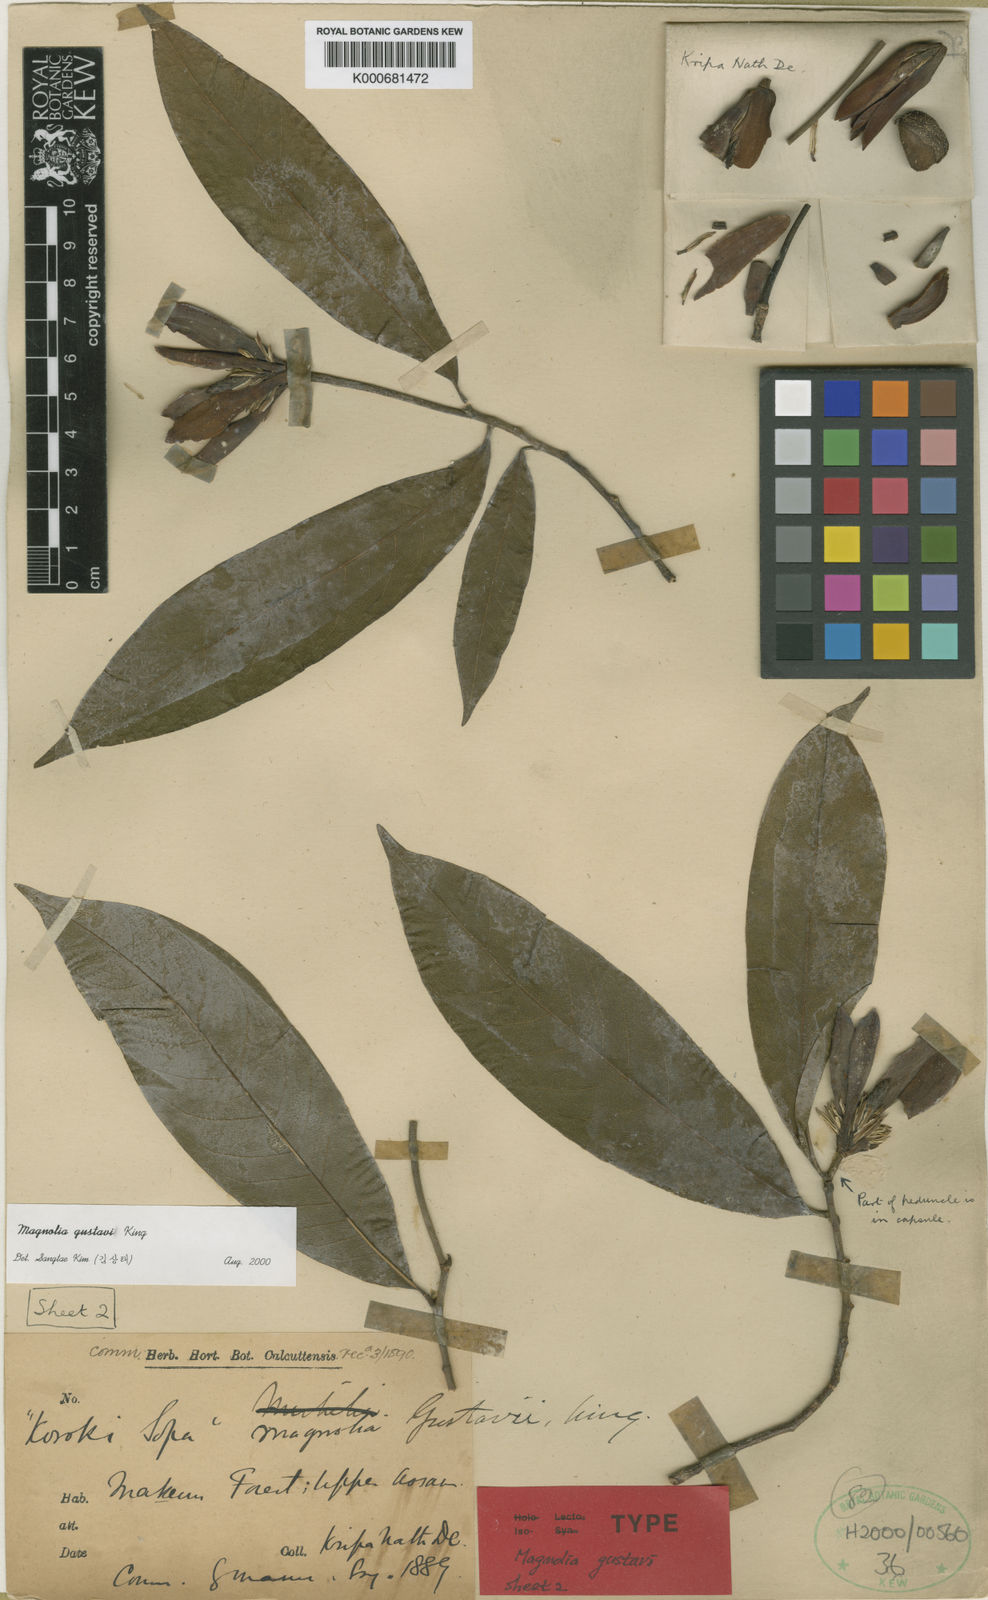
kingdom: Plantae
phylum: Tracheophyta
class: Magnoliopsida
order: Magnoliales
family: Magnoliaceae
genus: Magnolia
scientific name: Magnolia gustavi
